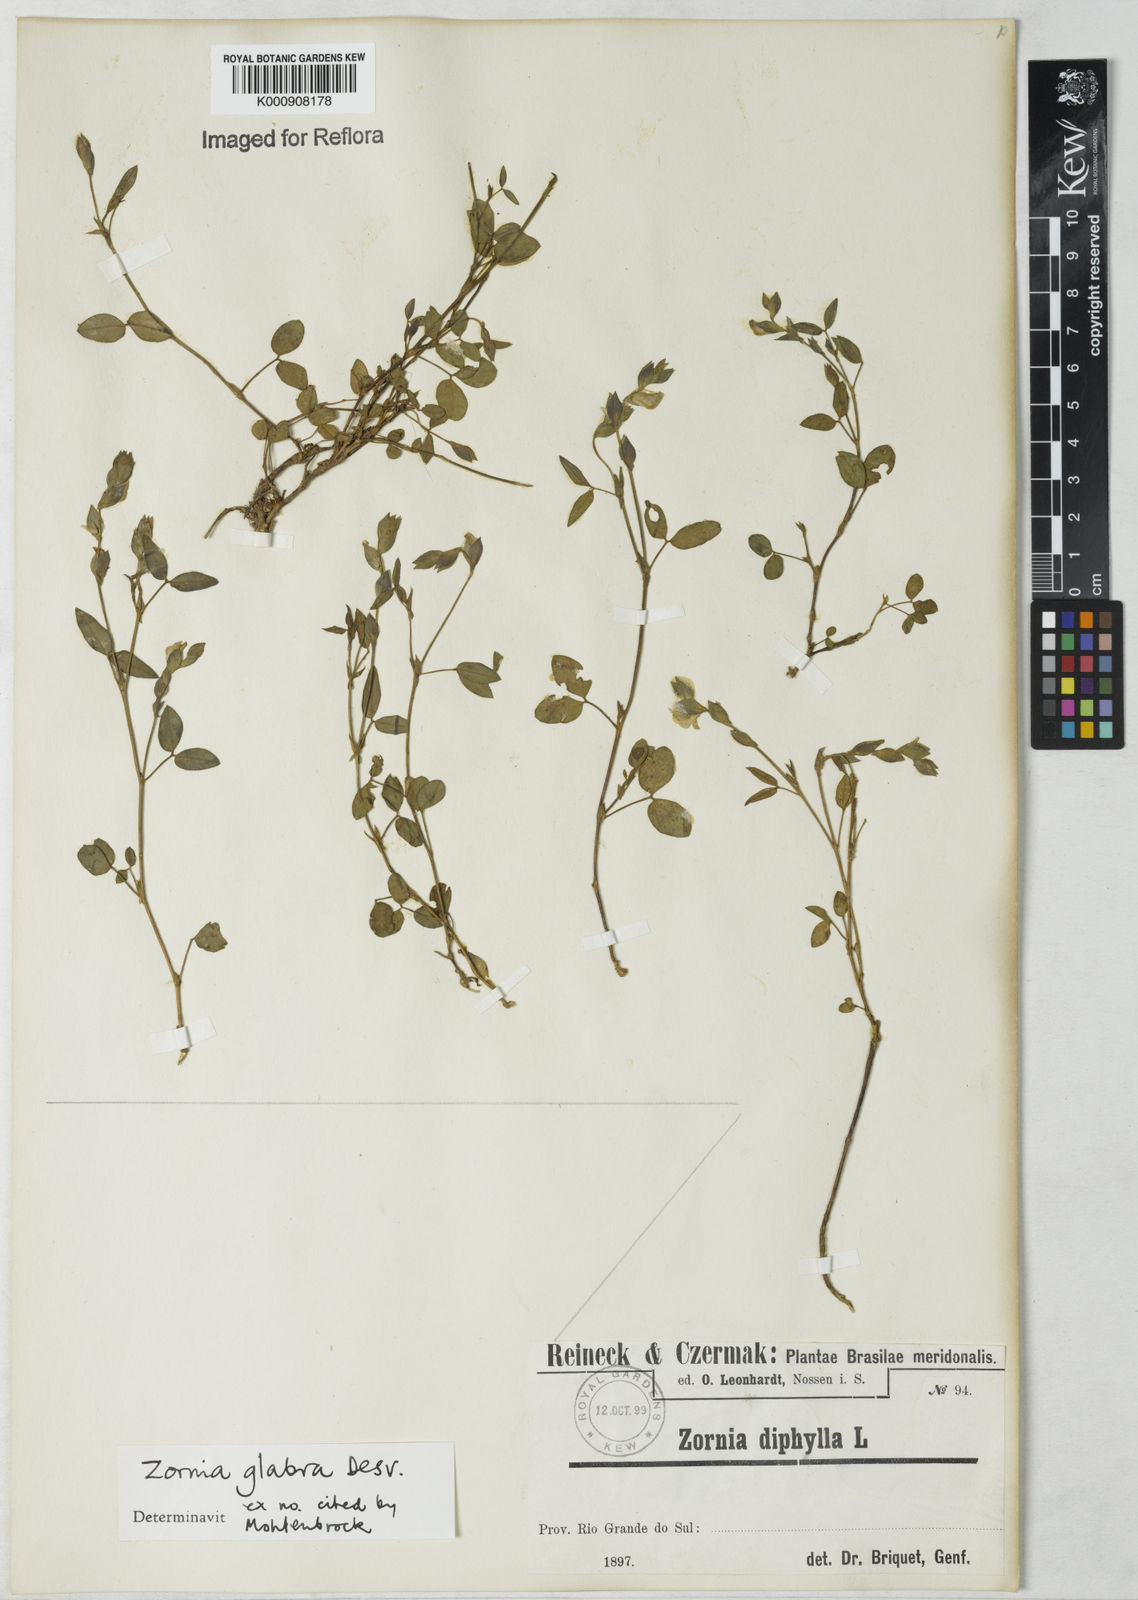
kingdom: Plantae
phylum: Tracheophyta
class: Magnoliopsida
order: Fabales
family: Fabaceae
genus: Zornia
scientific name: Zornia glabra
